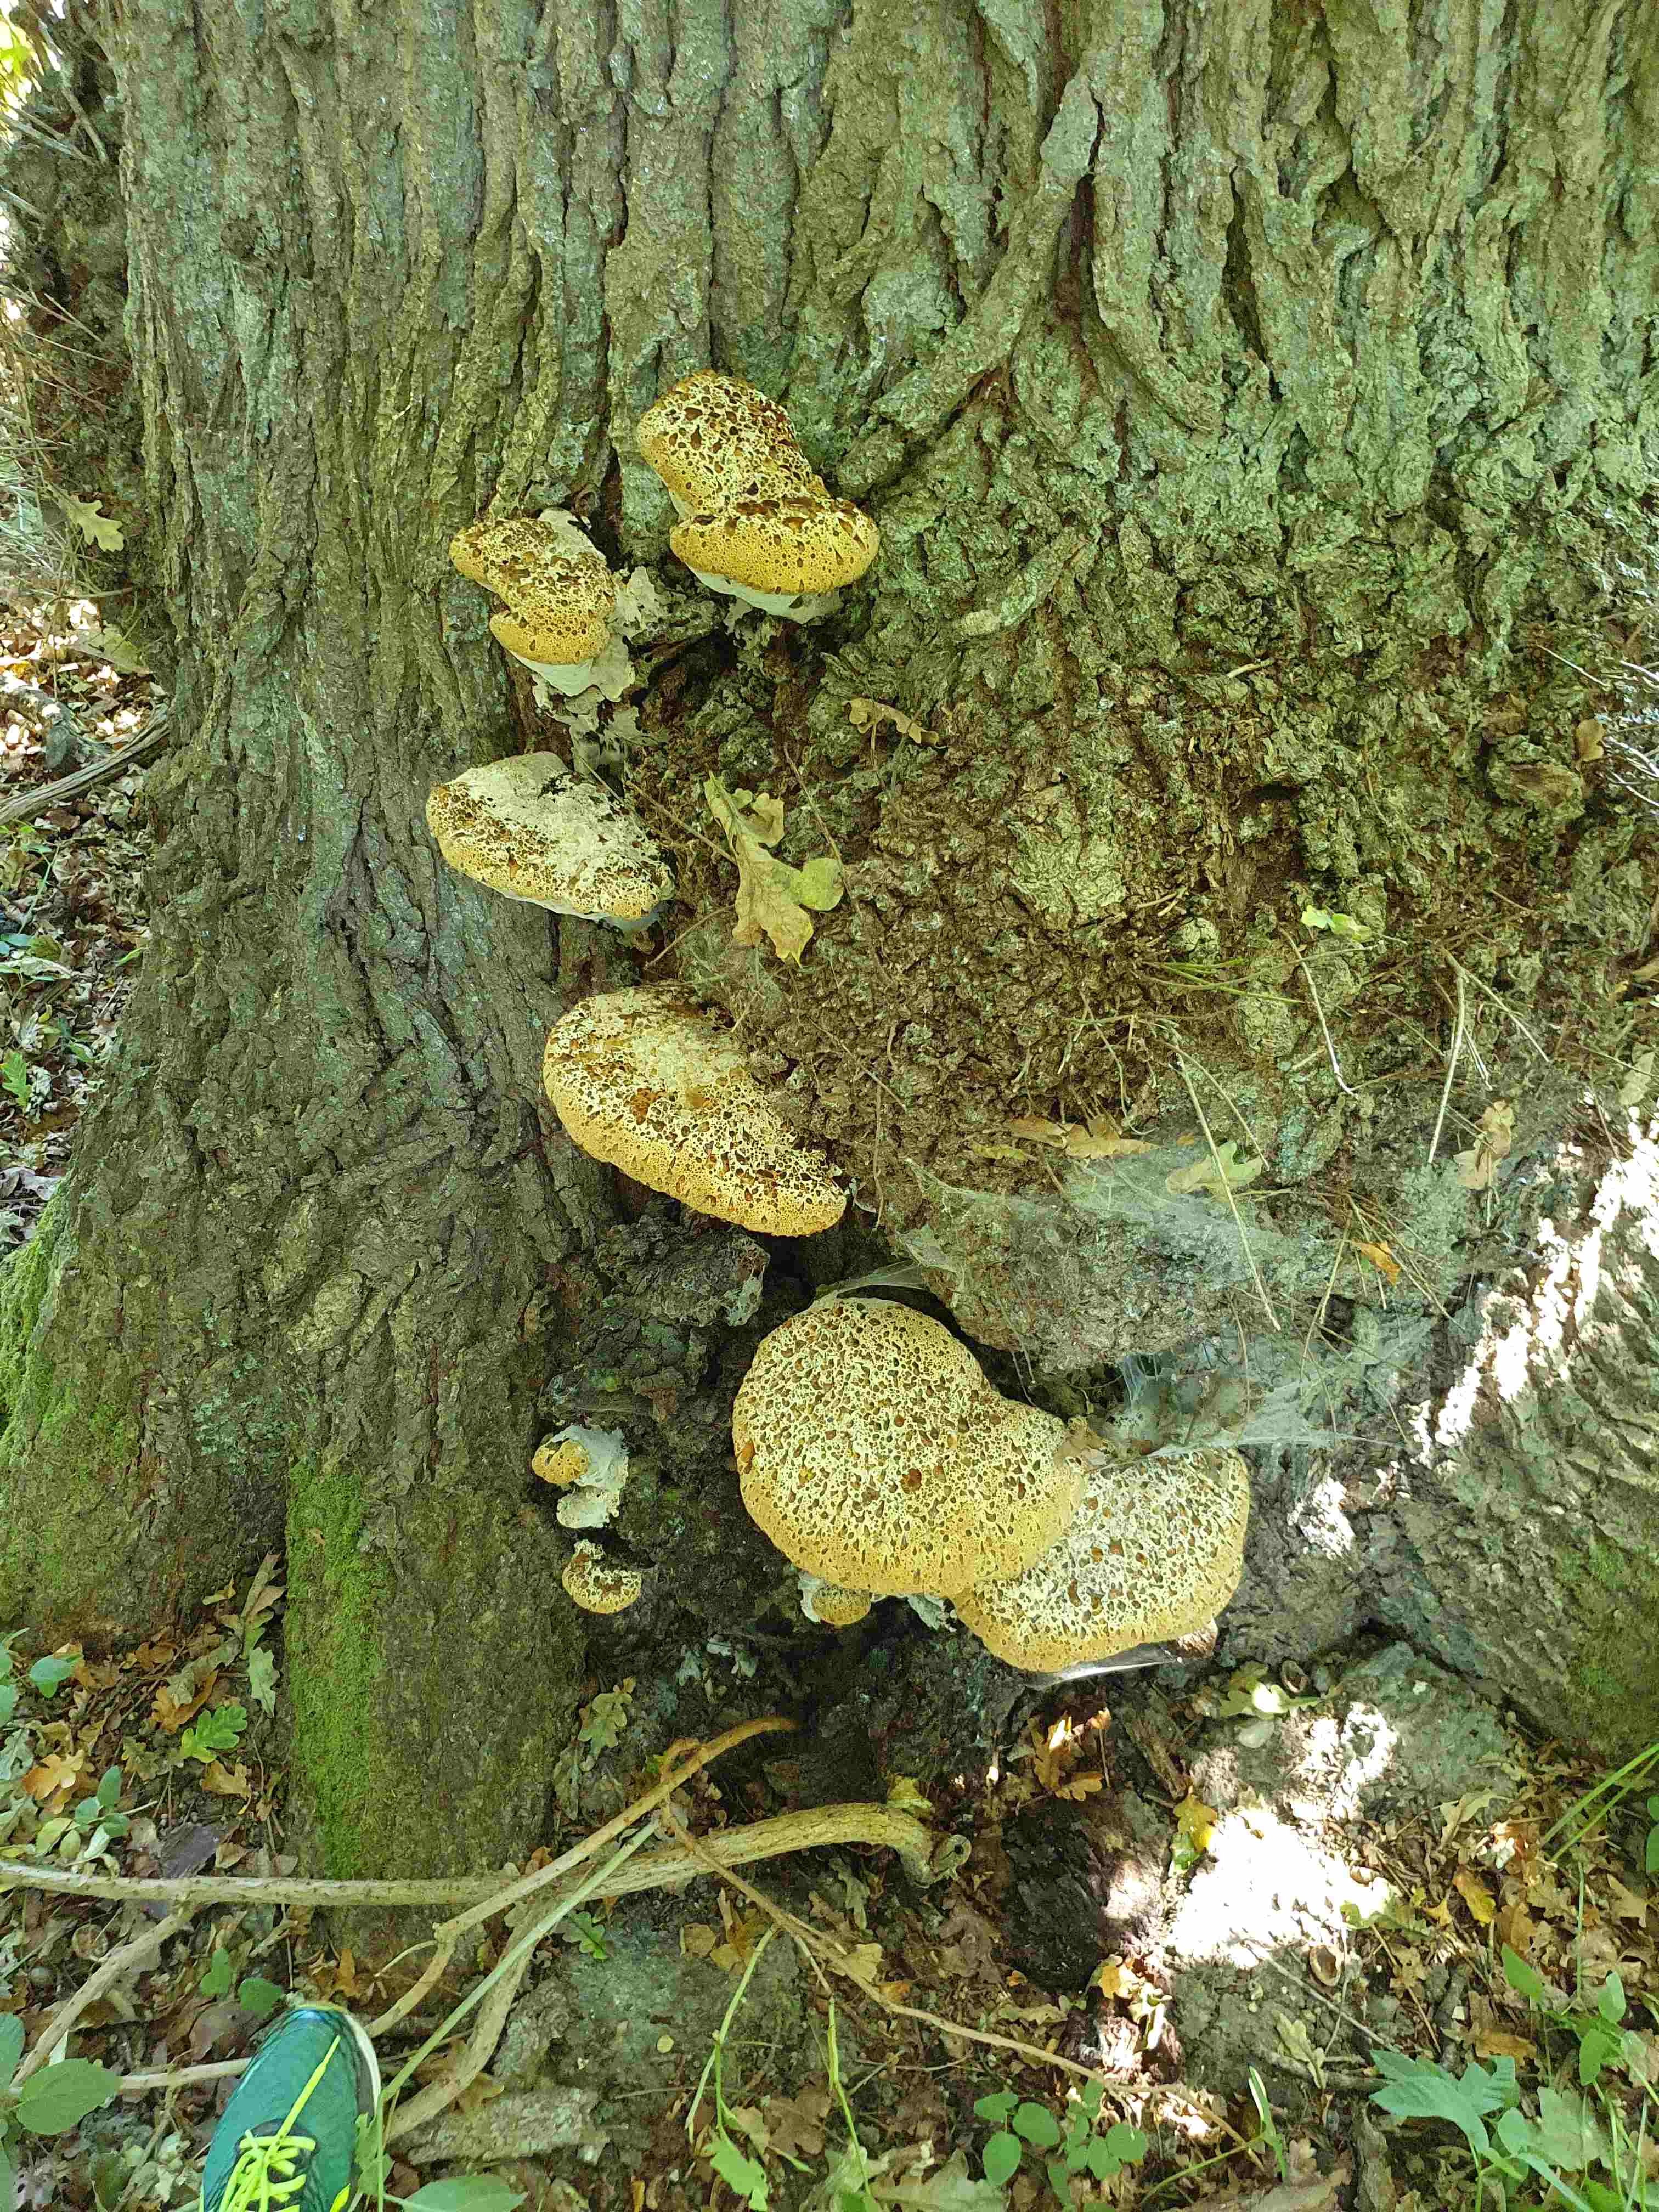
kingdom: Fungi
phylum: Basidiomycota
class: Agaricomycetes
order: Hymenochaetales
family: Hymenochaetaceae
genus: Pseudoinonotus
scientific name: Pseudoinonotus dryadeus
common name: ege-spejlporesvamp
